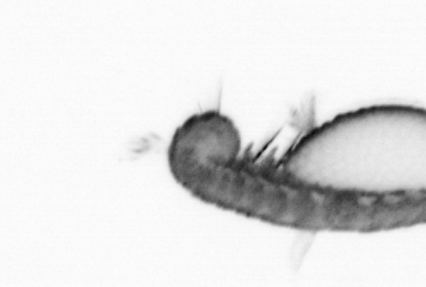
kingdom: Animalia
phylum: Annelida
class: Polychaeta
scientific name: Polychaeta
